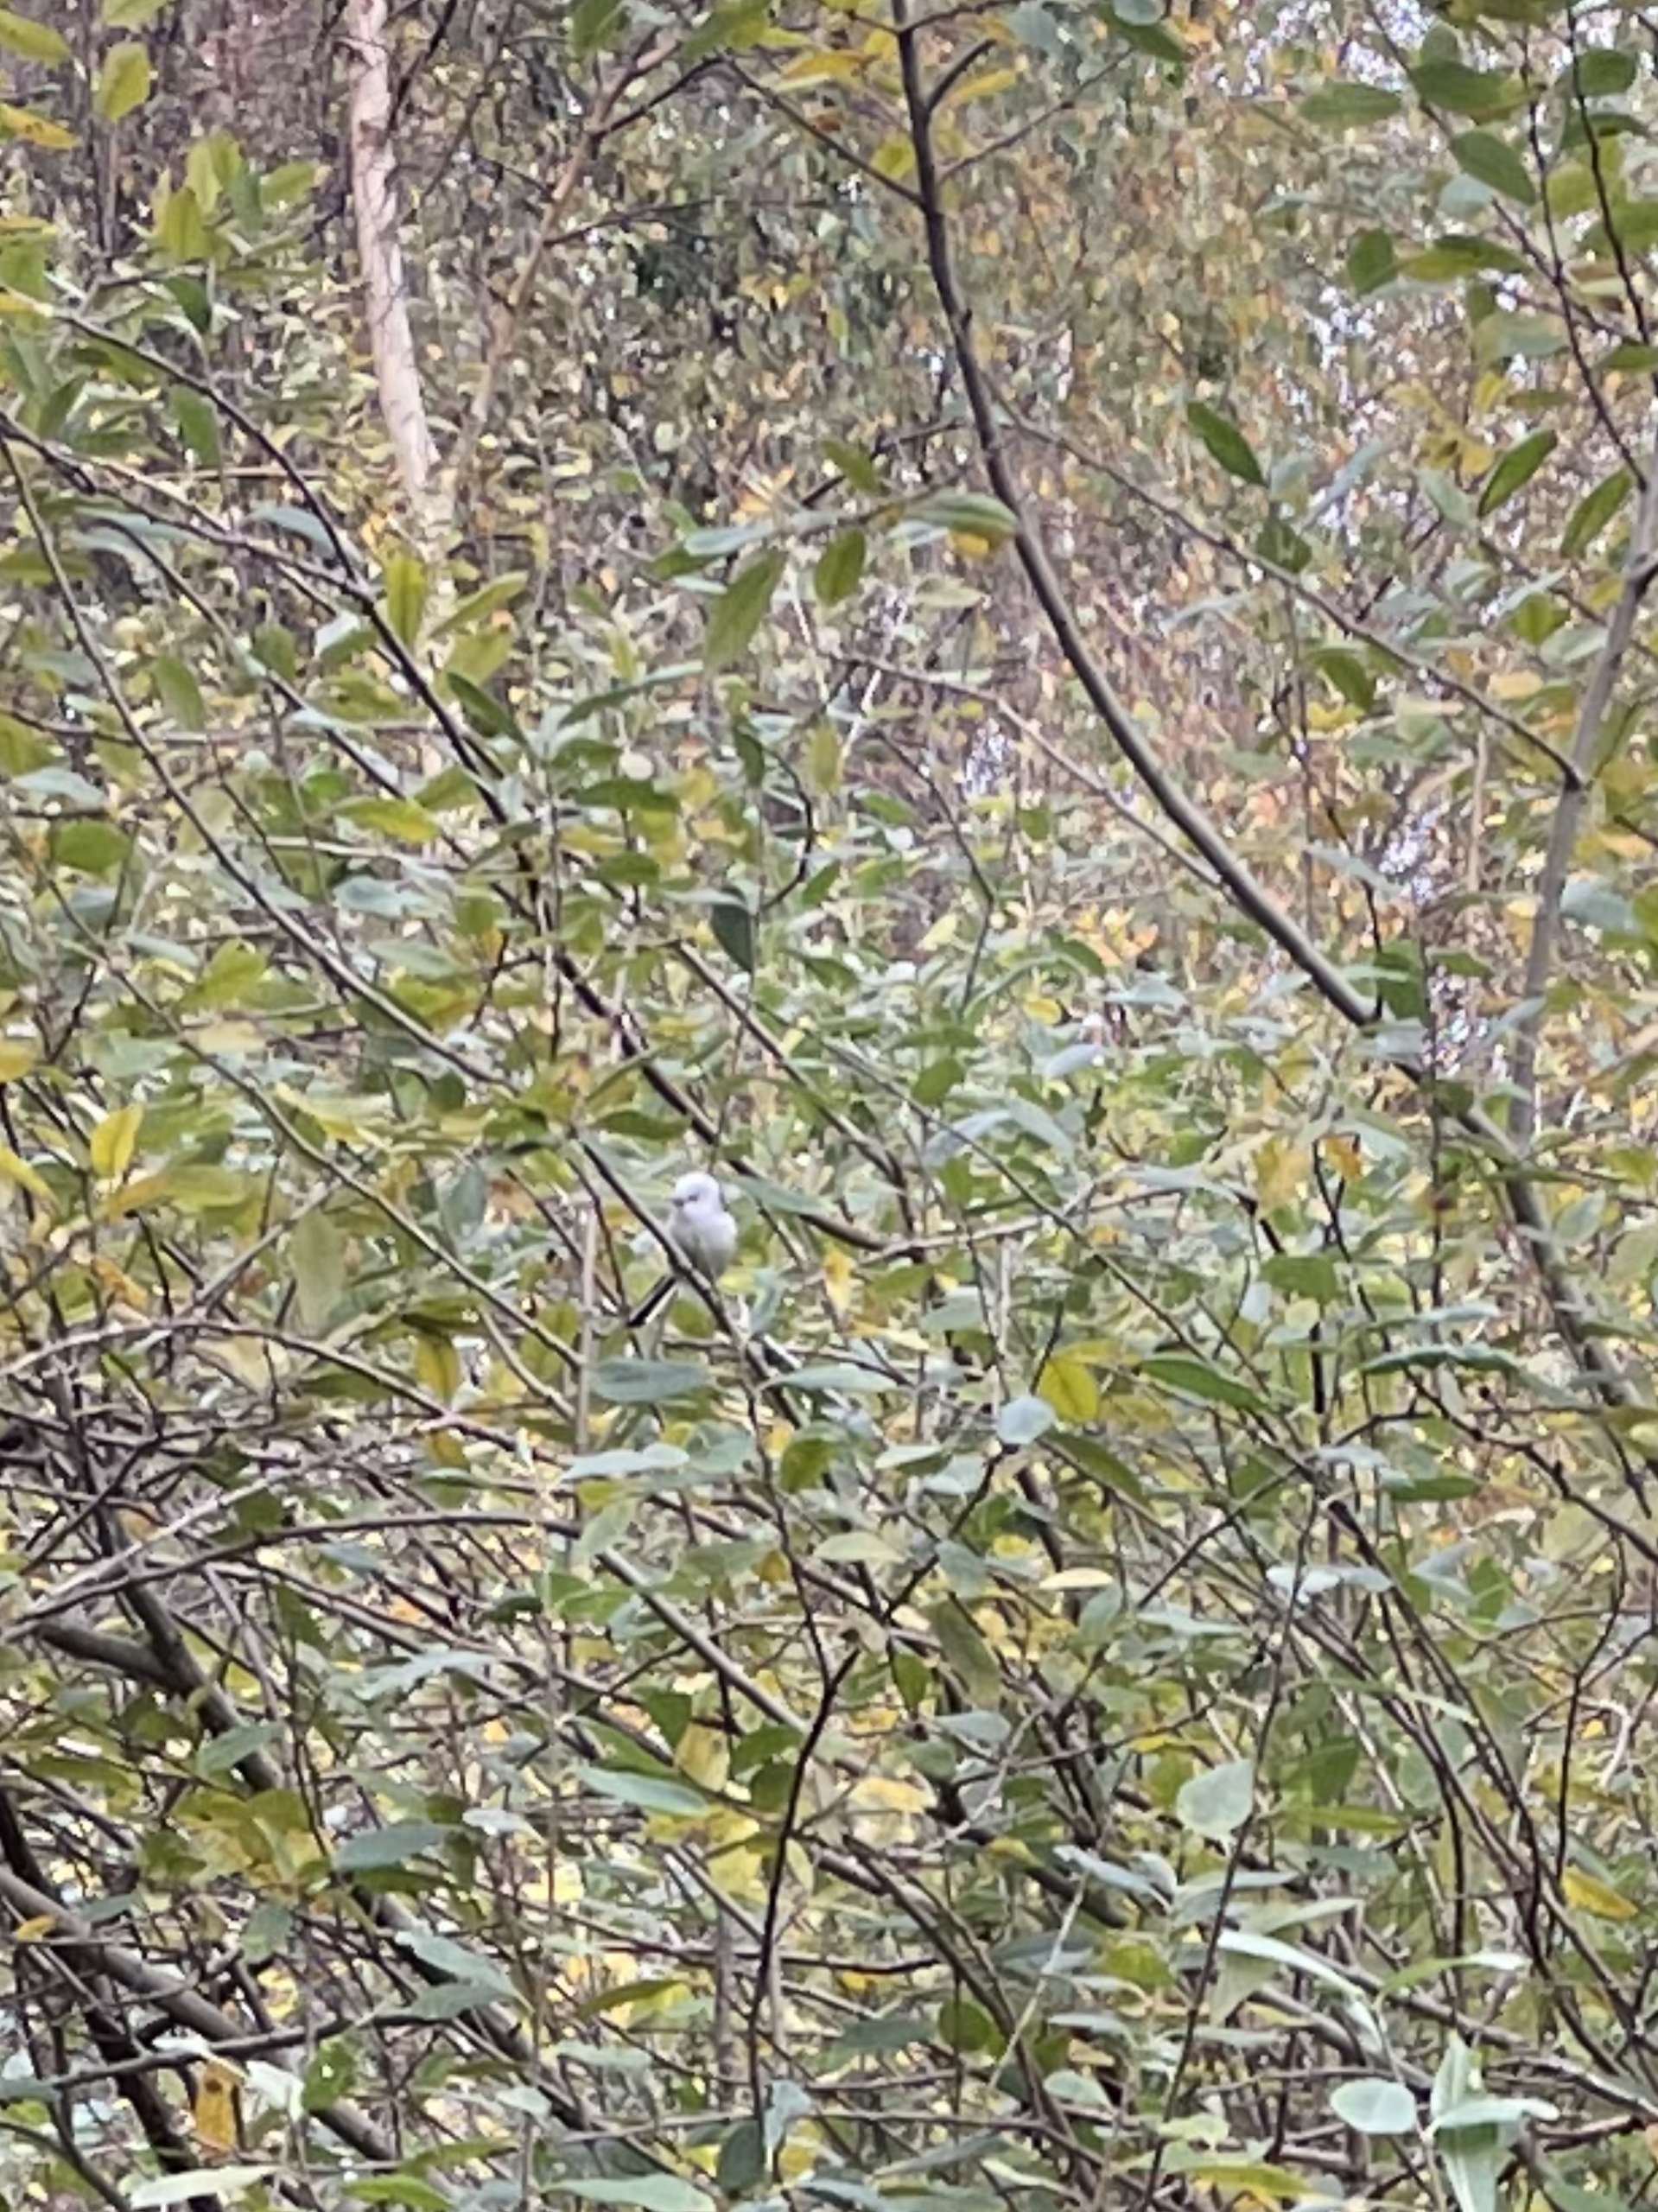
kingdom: Animalia
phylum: Chordata
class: Aves
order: Passeriformes
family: Aegithalidae
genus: Aegithalos
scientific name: Aegithalos caudatus
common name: Halemejse
